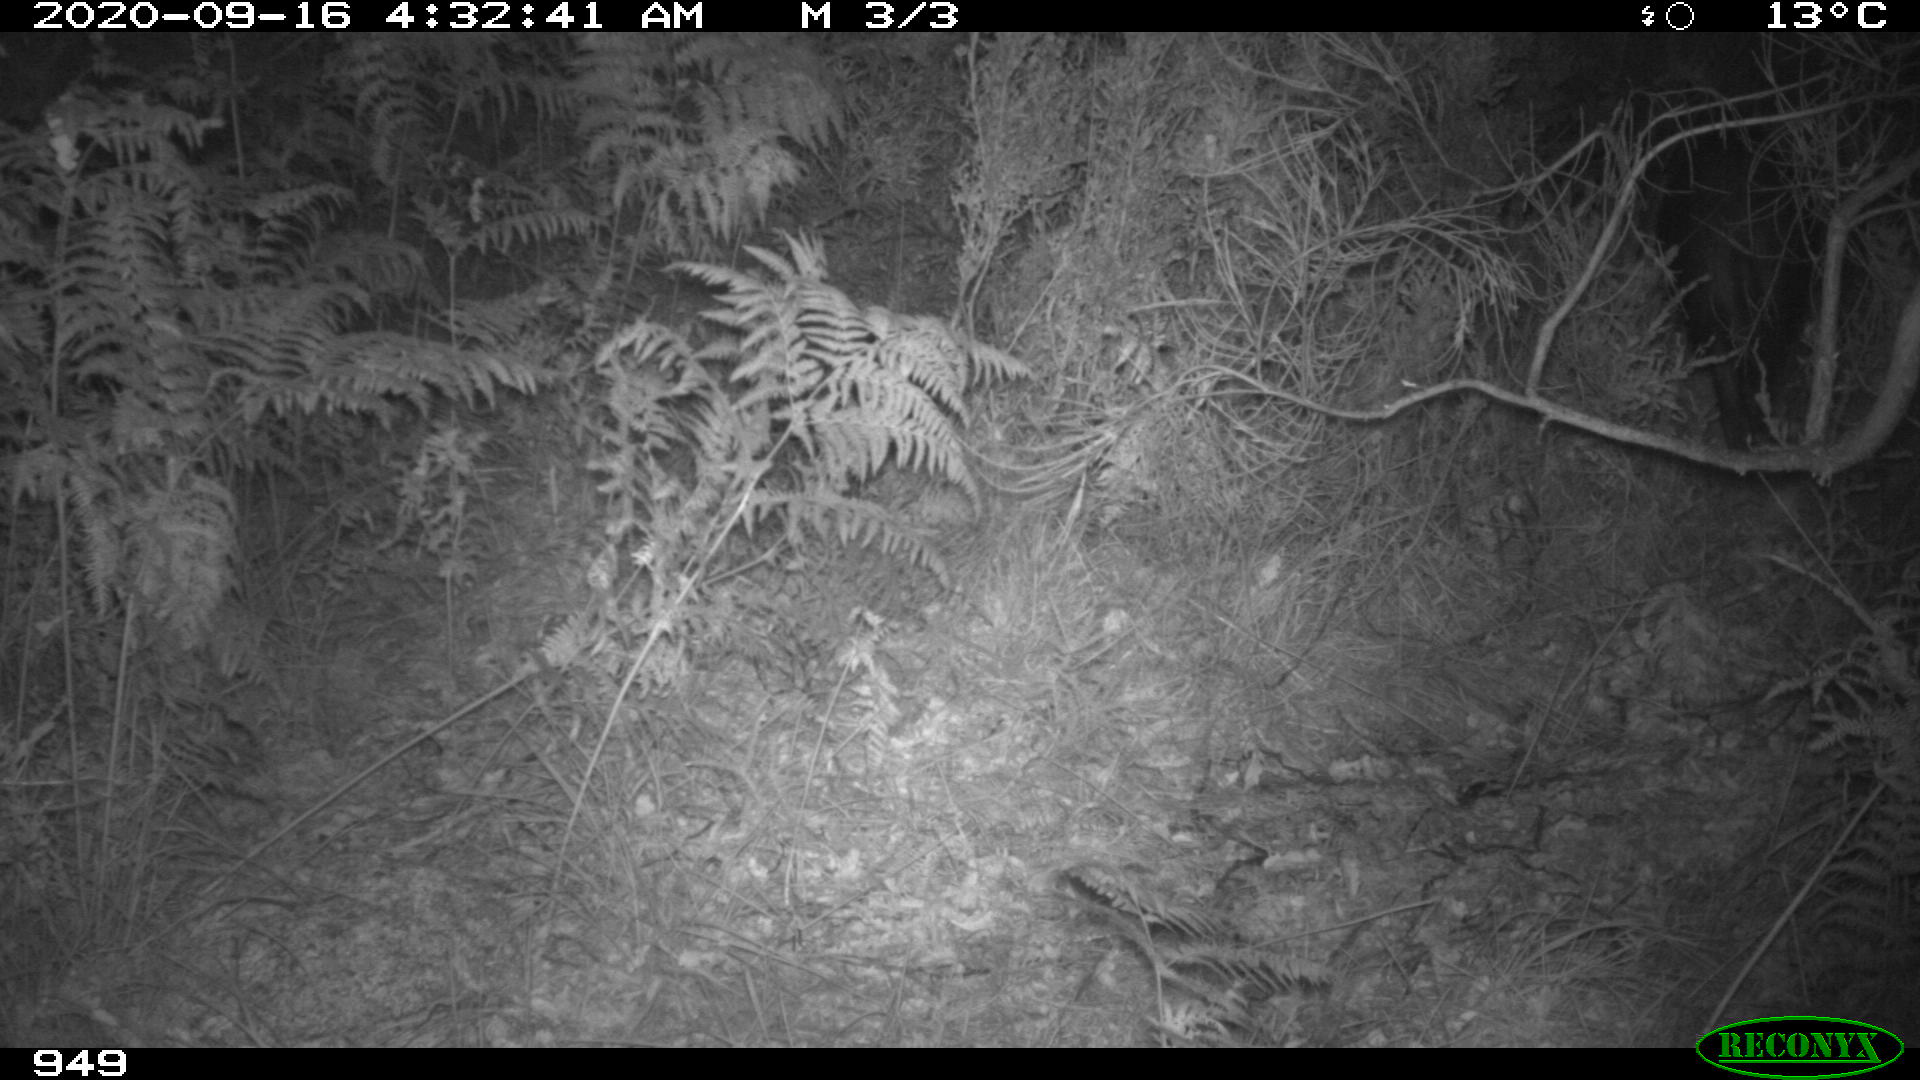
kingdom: Animalia
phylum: Chordata
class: Mammalia
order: Artiodactyla
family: Suidae
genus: Sus
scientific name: Sus scrofa
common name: Wild boar
